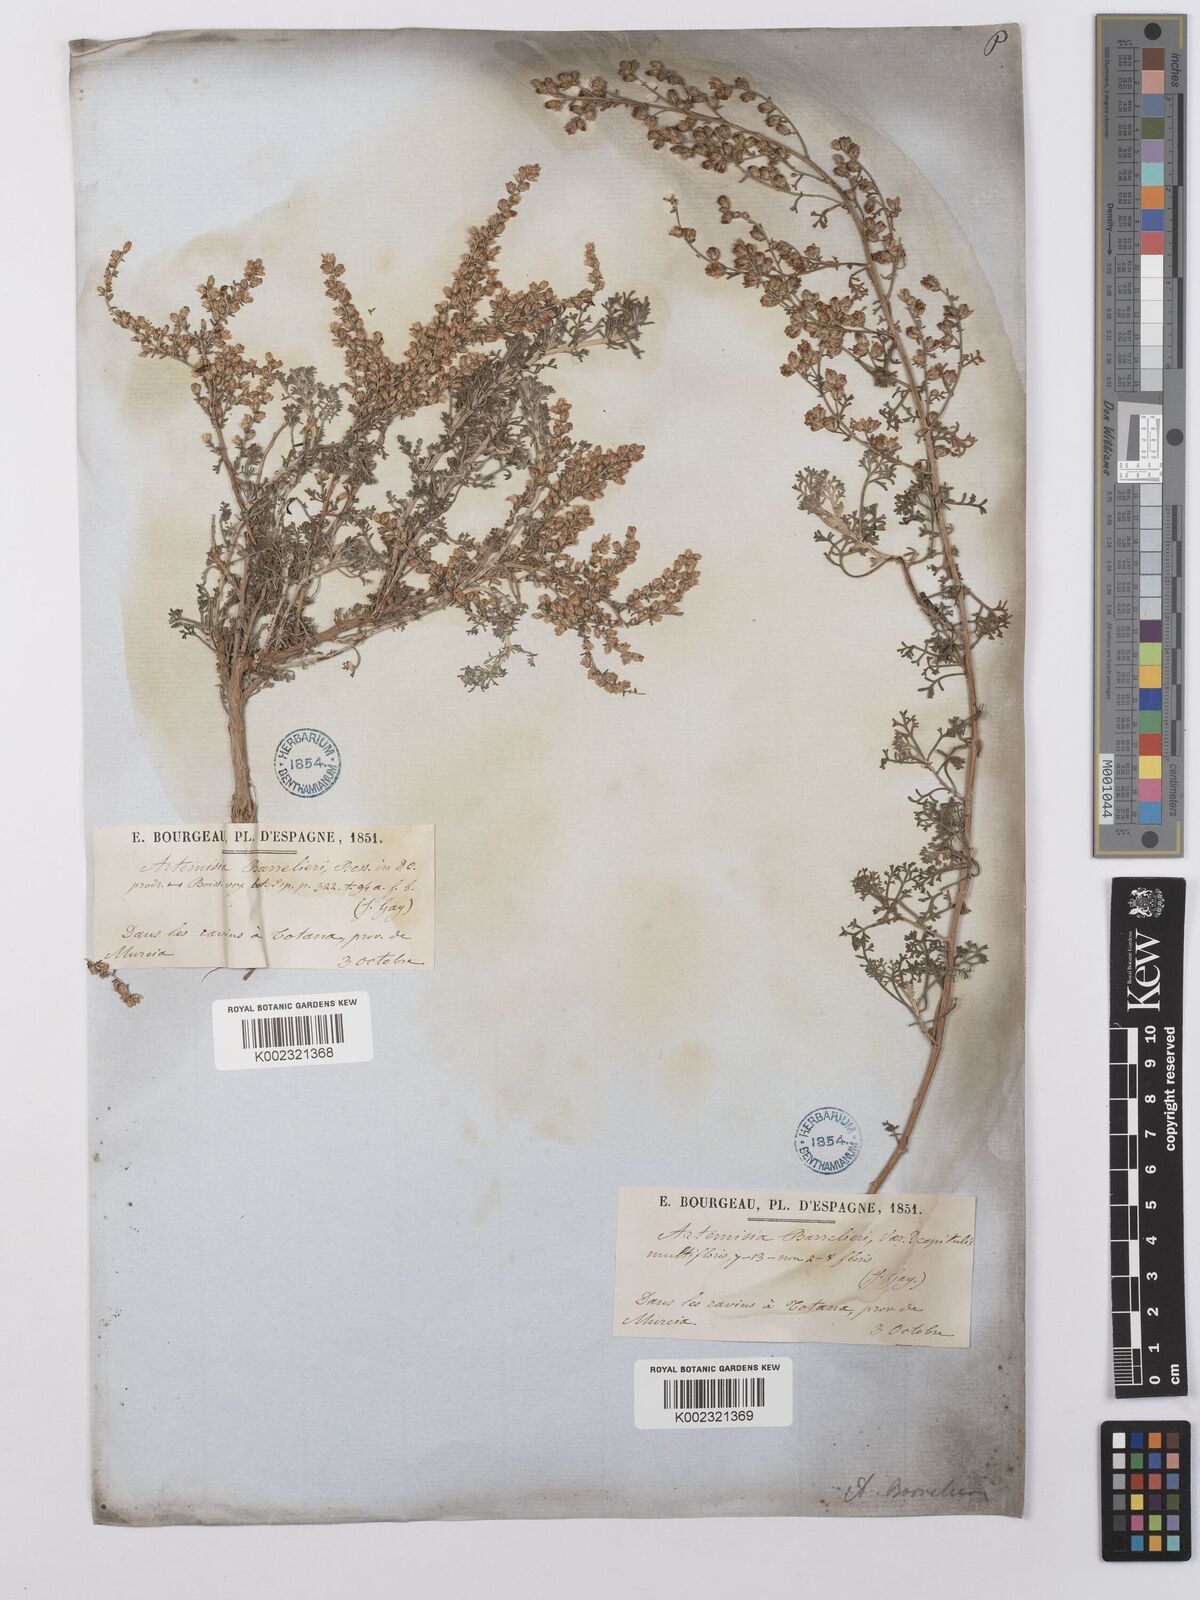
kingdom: Plantae
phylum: Tracheophyta
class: Magnoliopsida
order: Asterales
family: Asteraceae
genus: Artemisia
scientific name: Artemisia barrelieri
